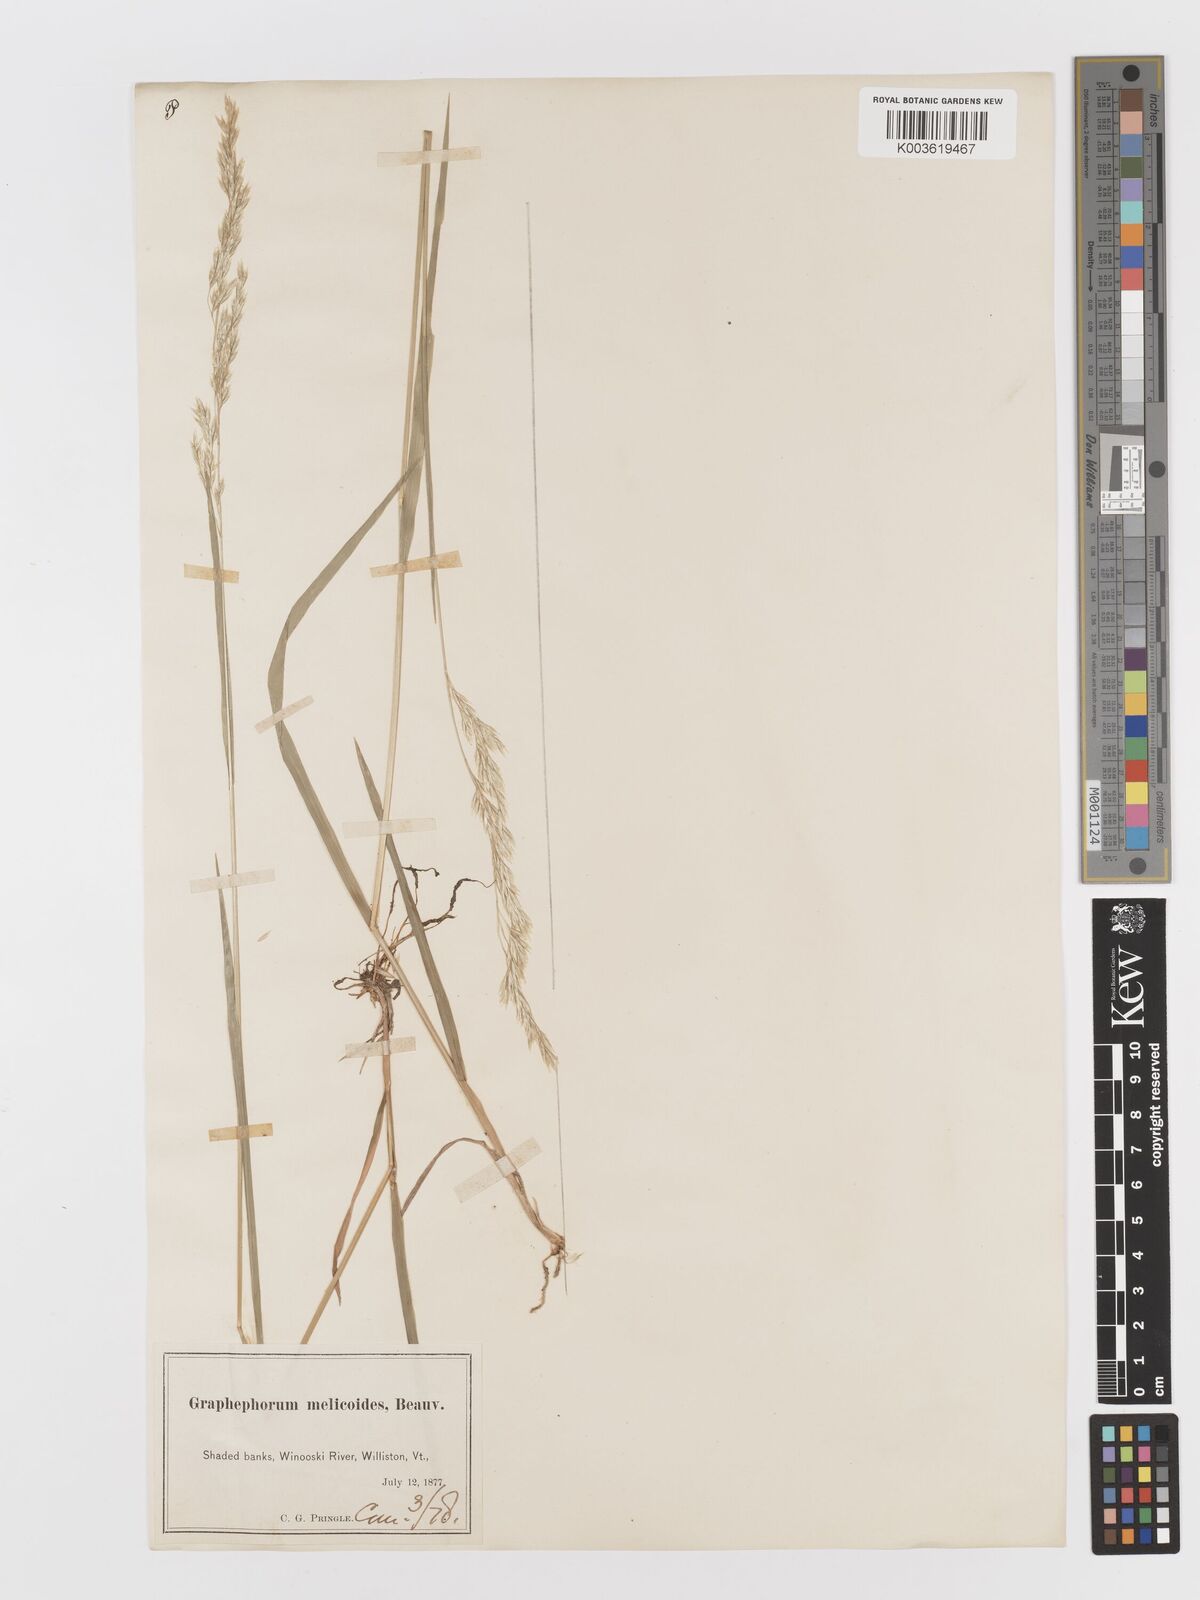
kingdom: Plantae
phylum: Tracheophyta
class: Liliopsida
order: Poales
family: Poaceae
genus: Graphephorum
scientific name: Graphephorum melicoides
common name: False melic
